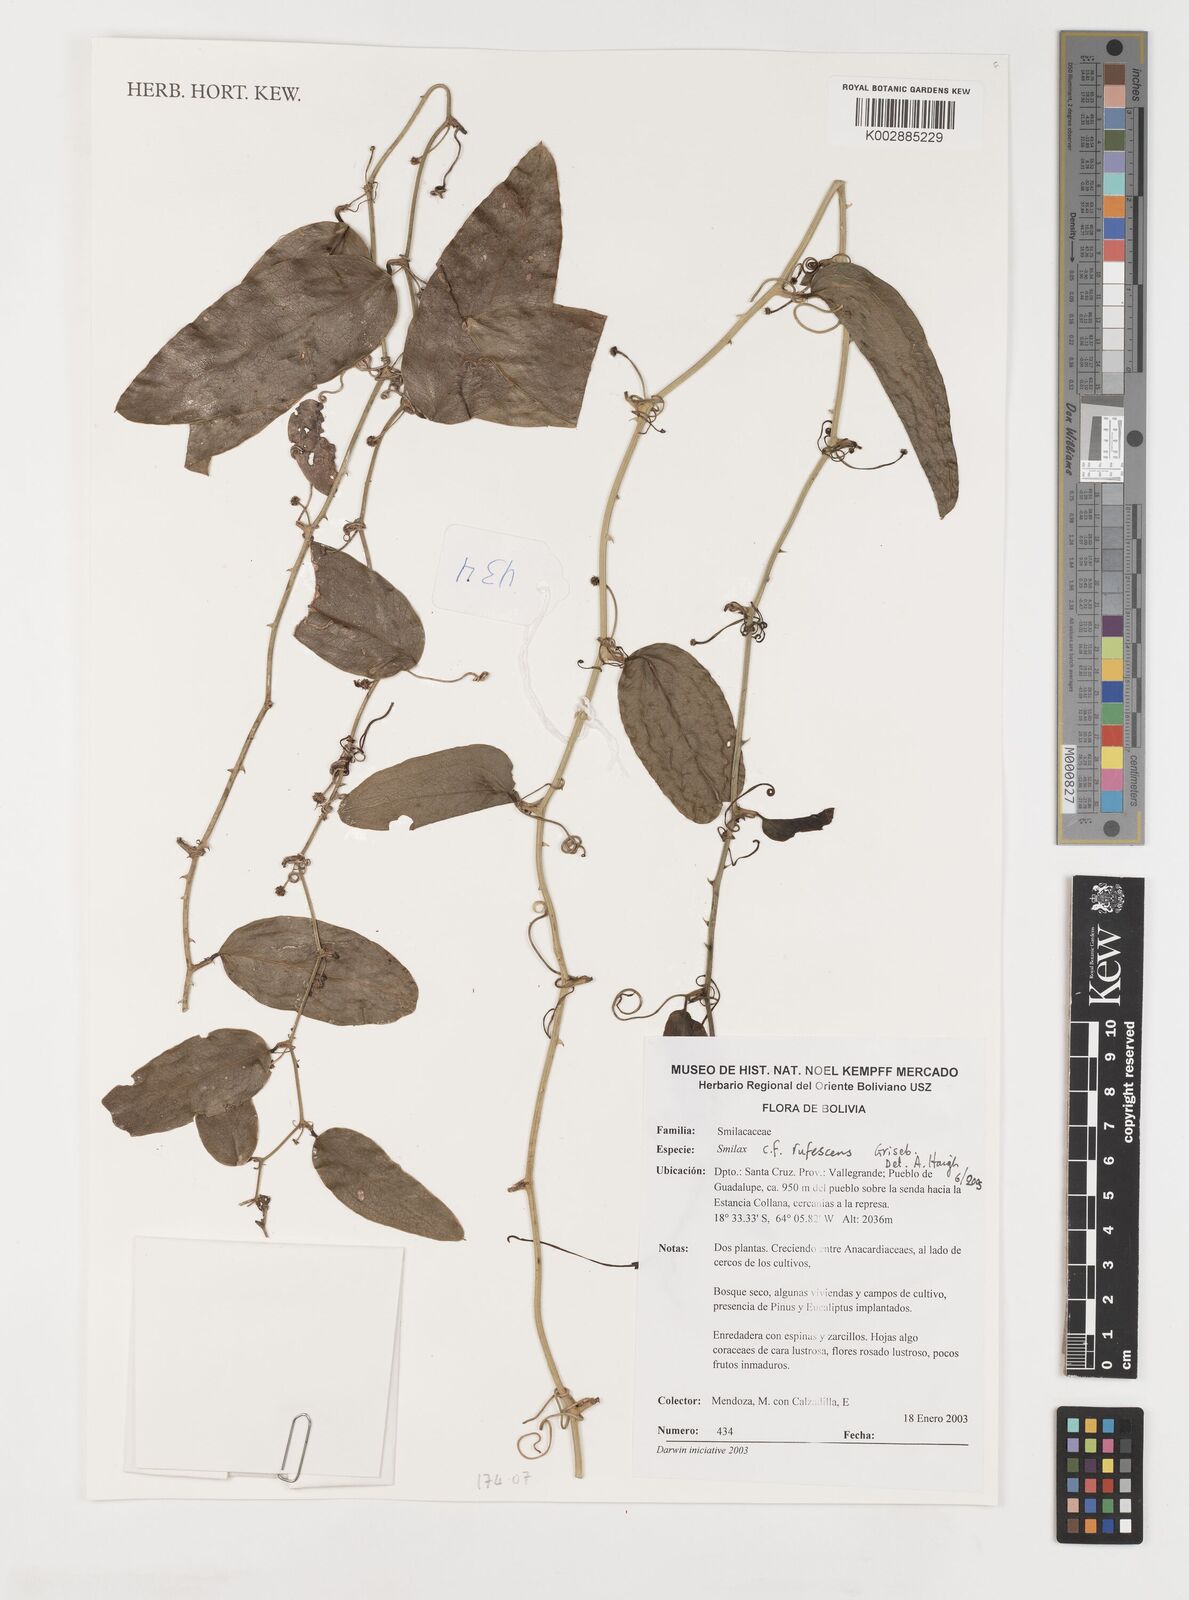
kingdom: Plantae
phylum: Tracheophyta
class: Liliopsida
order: Liliales
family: Smilacaceae
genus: Smilax
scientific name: Smilax rufescens
